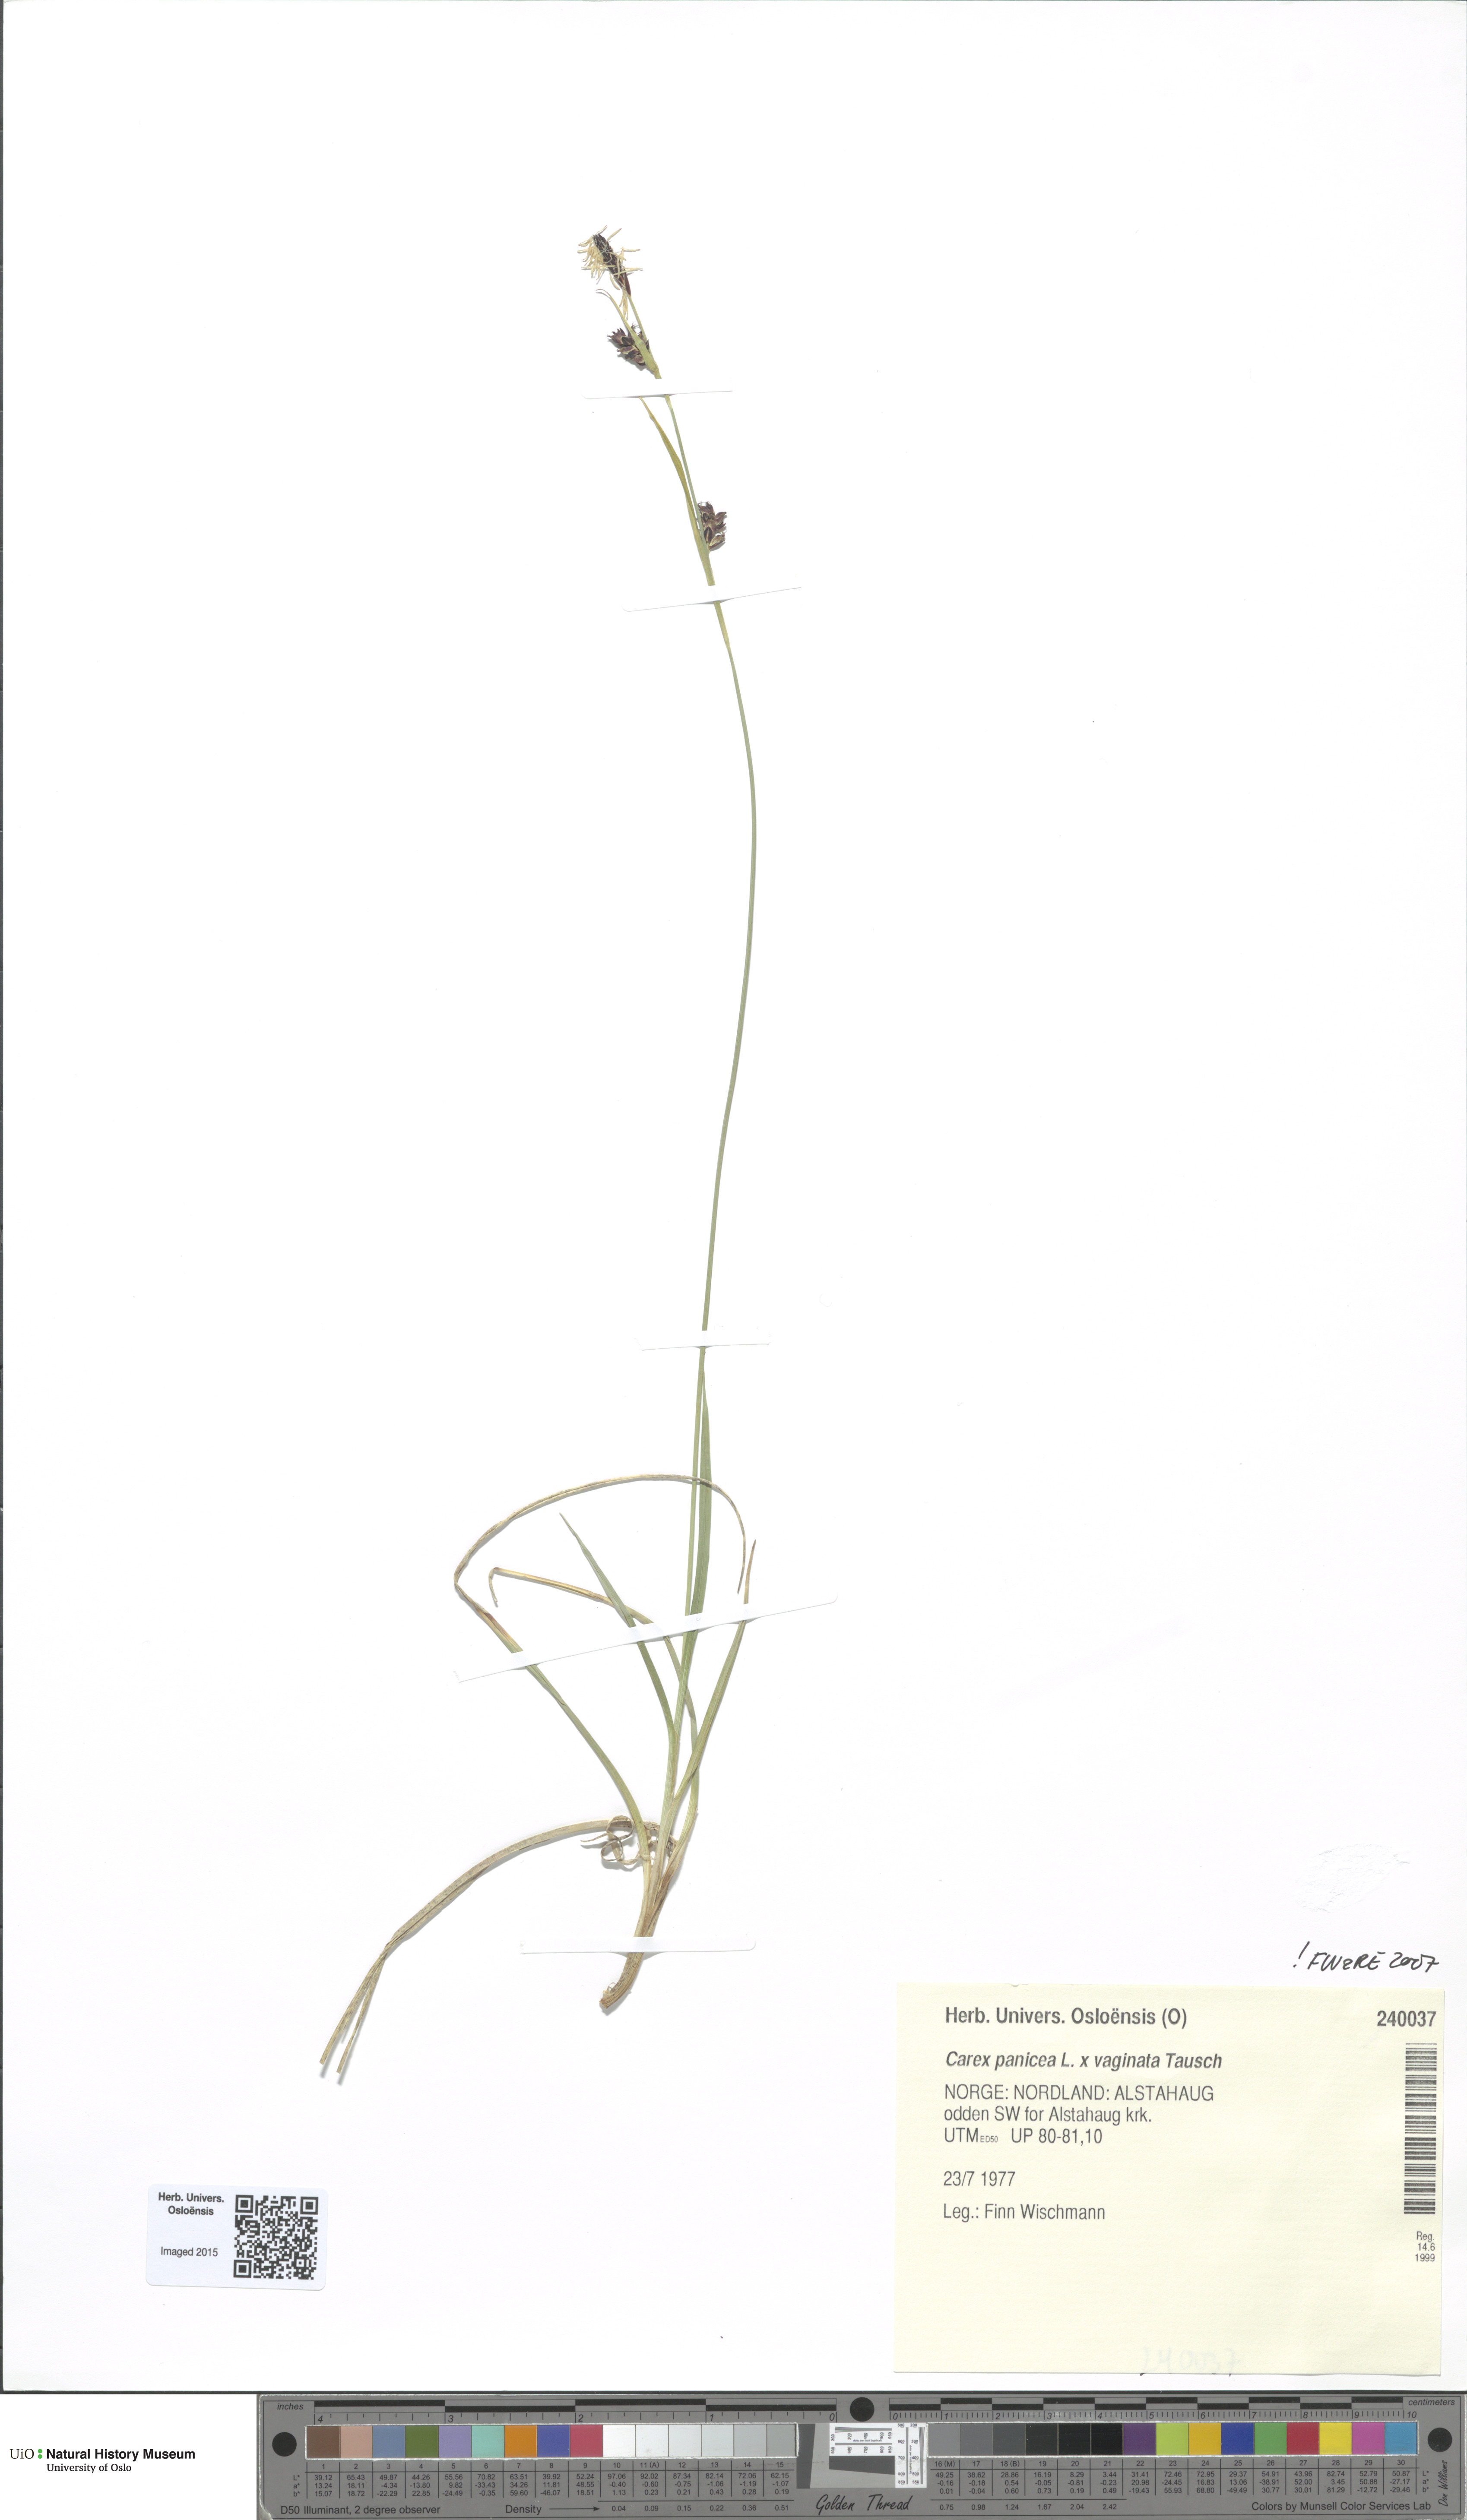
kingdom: Plantae
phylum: Tracheophyta
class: Liliopsida
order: Poales
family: Cyperaceae
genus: Carex
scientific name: Carex
